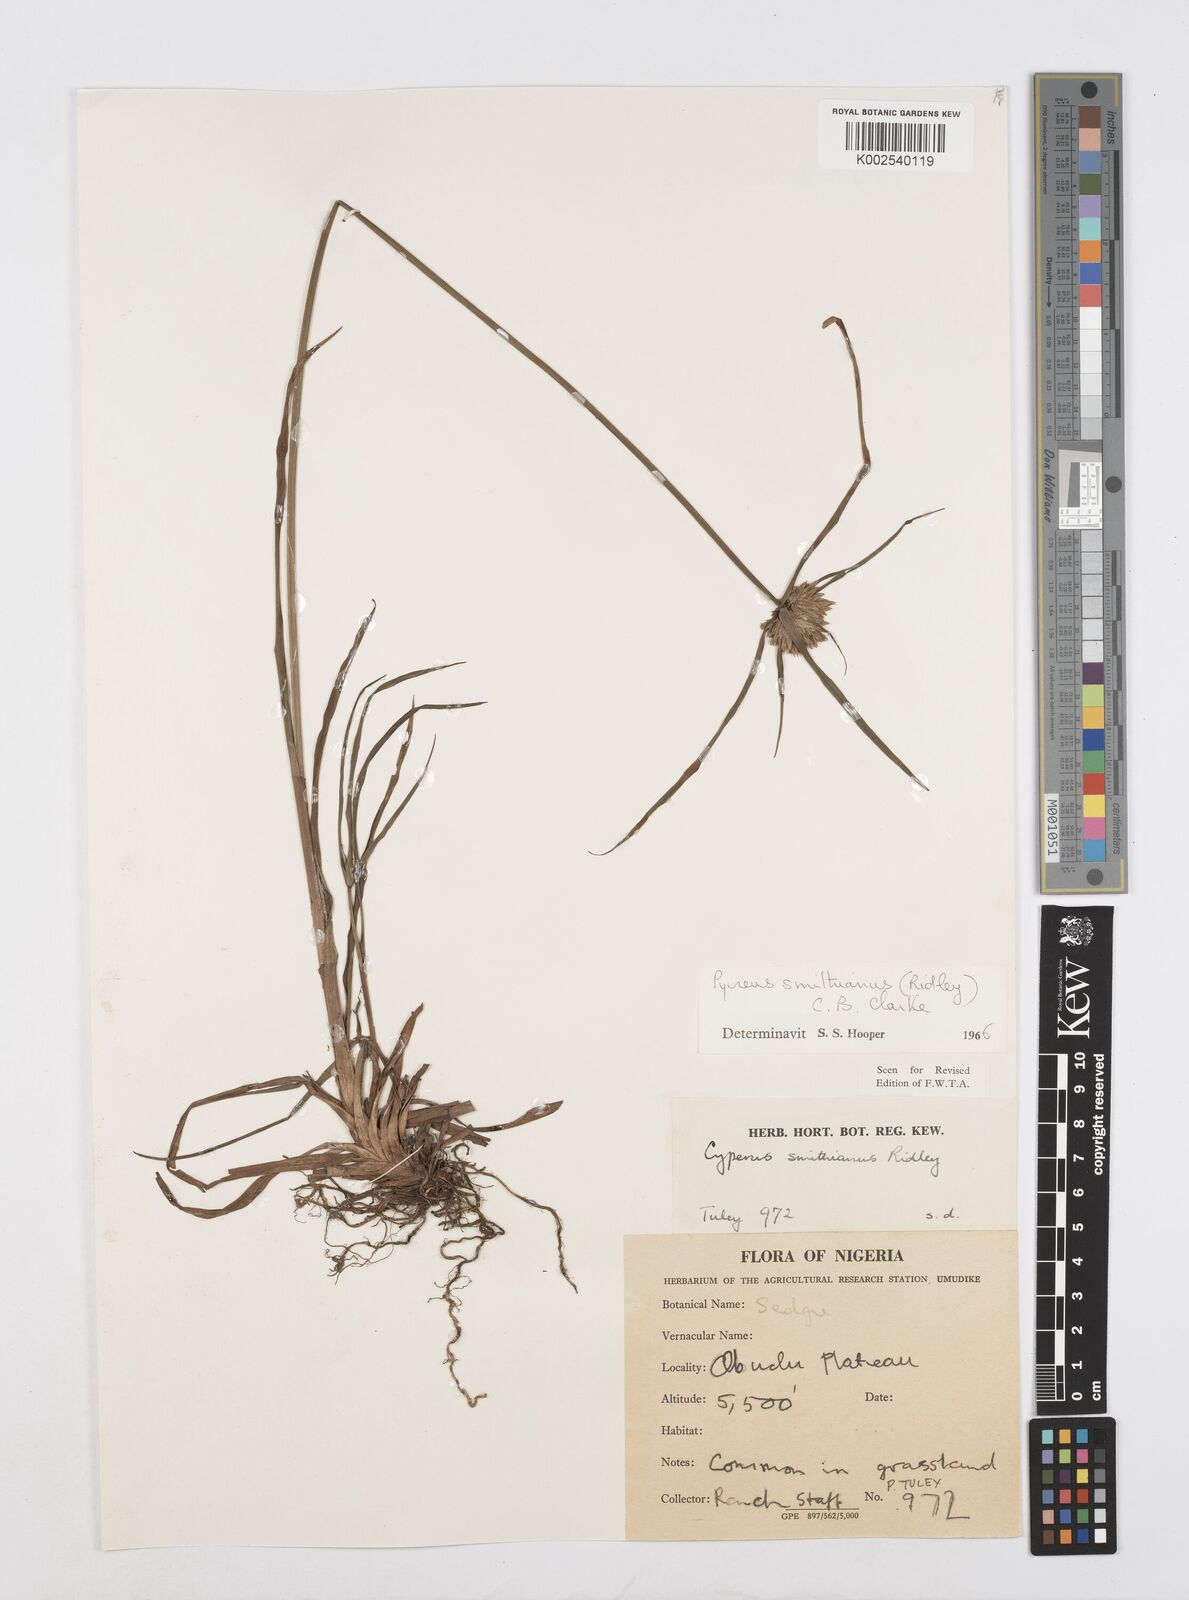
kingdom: Plantae
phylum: Tracheophyta
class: Liliopsida
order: Poales
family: Cyperaceae
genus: Cyperus
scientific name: Cyperus smithianus
